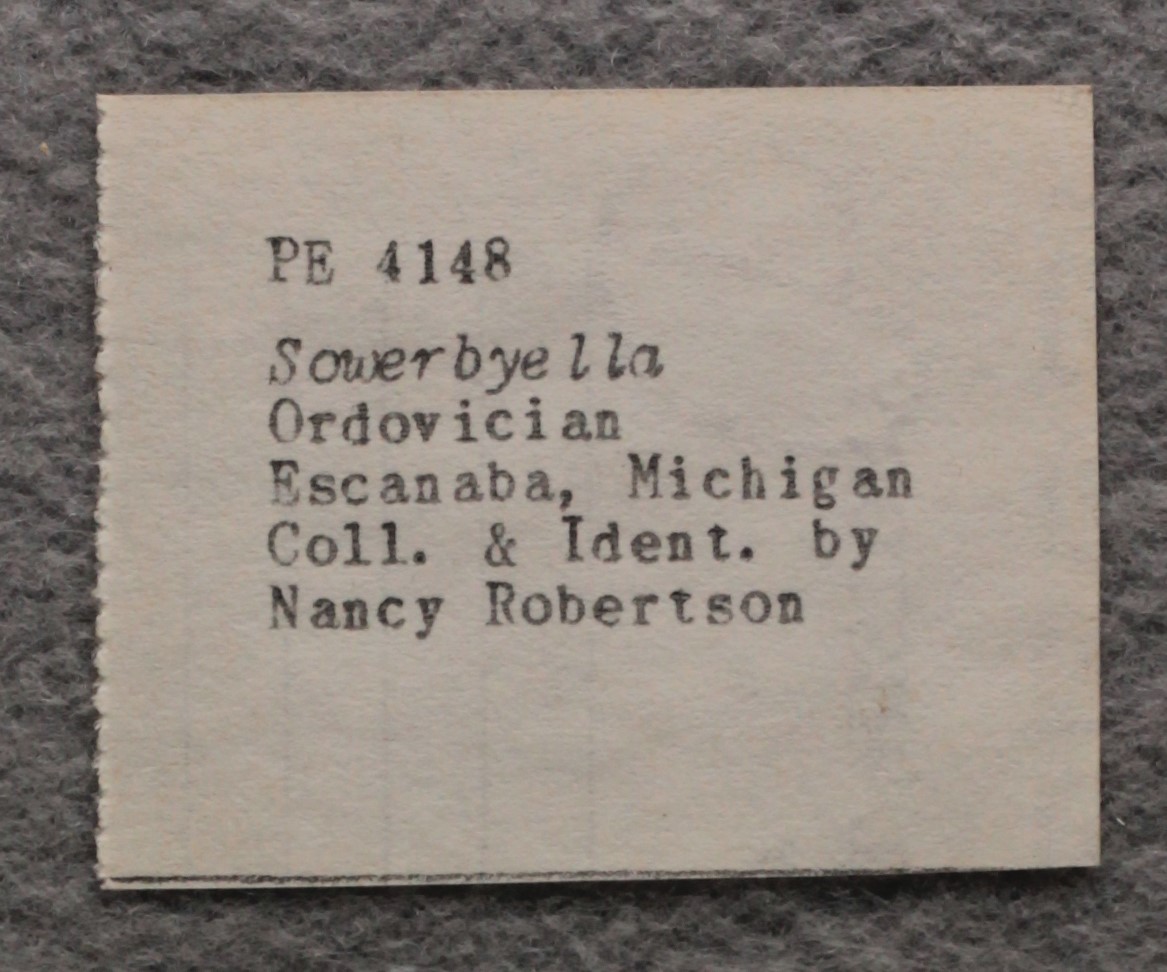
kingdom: Animalia
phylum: Brachiopoda
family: Sowerbyellidae
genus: Sowerbyella
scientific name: Sowerbyella
